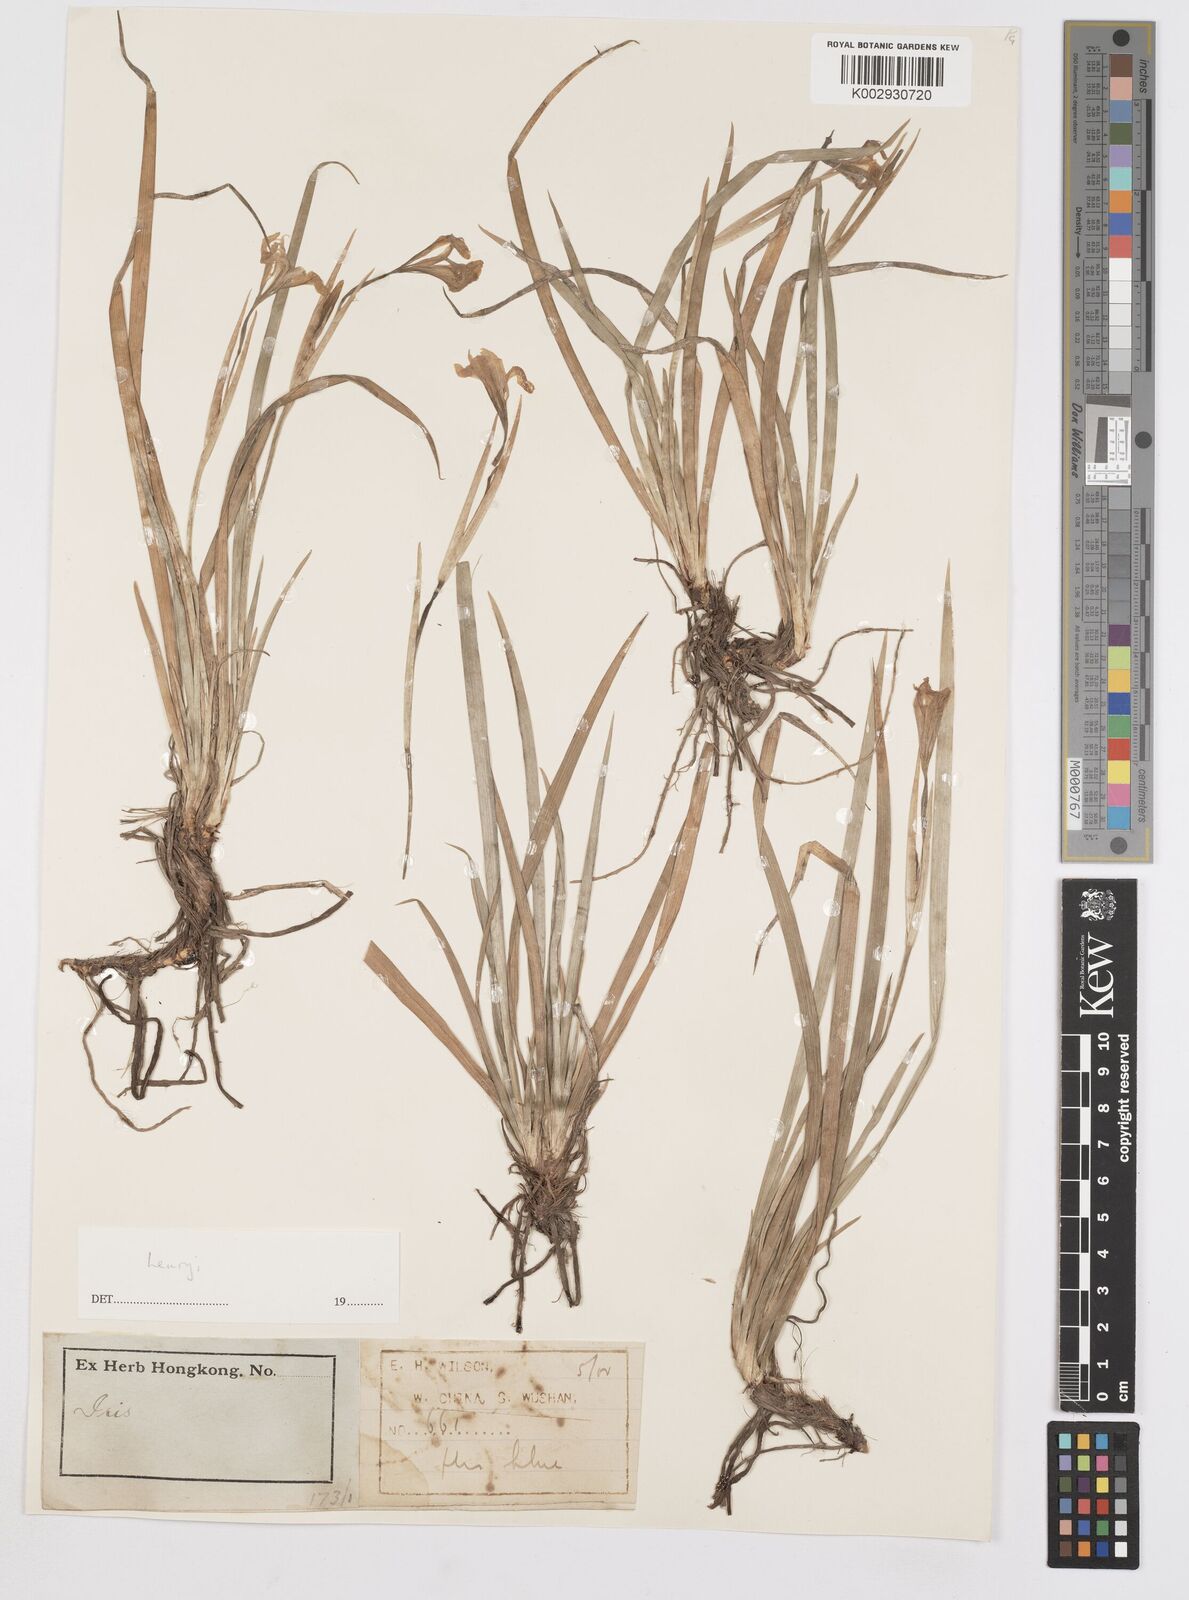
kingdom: Plantae
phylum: Tracheophyta
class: Liliopsida
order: Asparagales
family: Iridaceae
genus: Iris
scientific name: Iris henryi
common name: Long-pedicel iris
